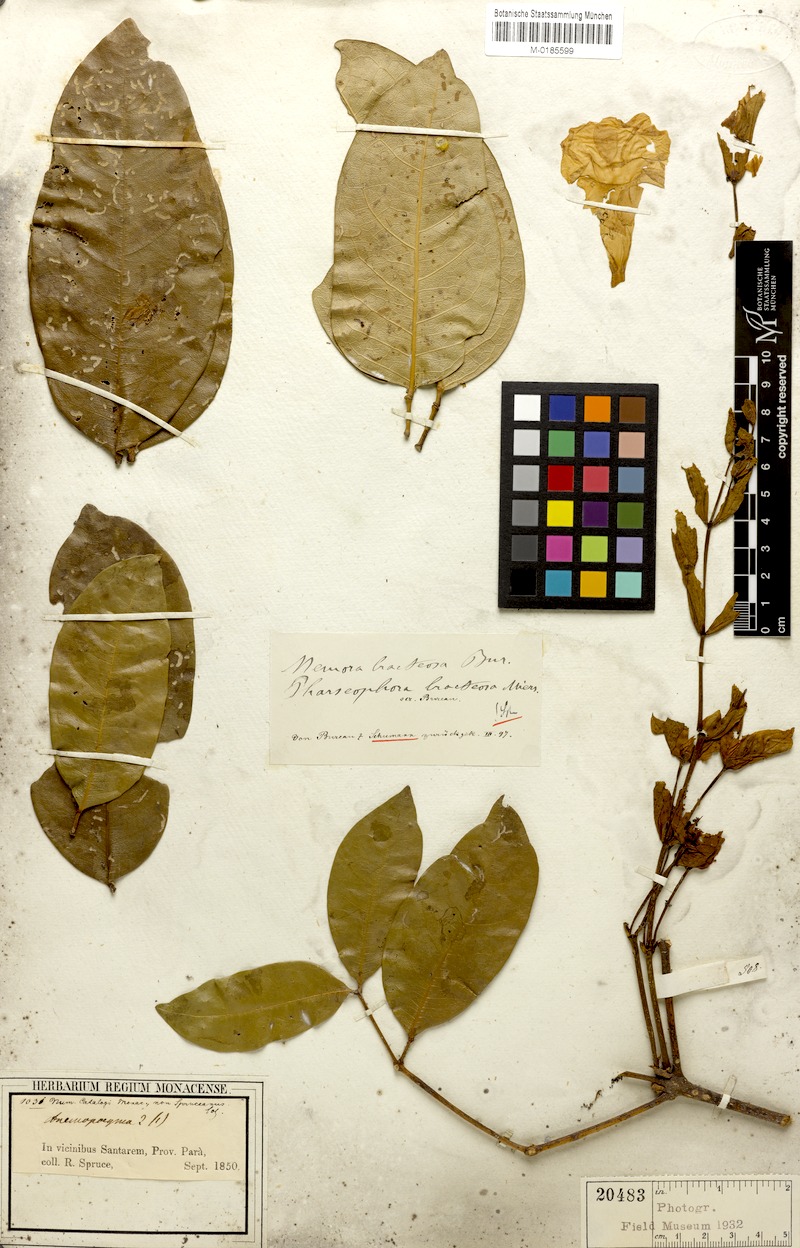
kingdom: Plantae
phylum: Tracheophyta
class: Magnoliopsida
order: Lamiales
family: Bignoniaceae
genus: Adenocalymma
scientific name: Adenocalymma bracteosum
